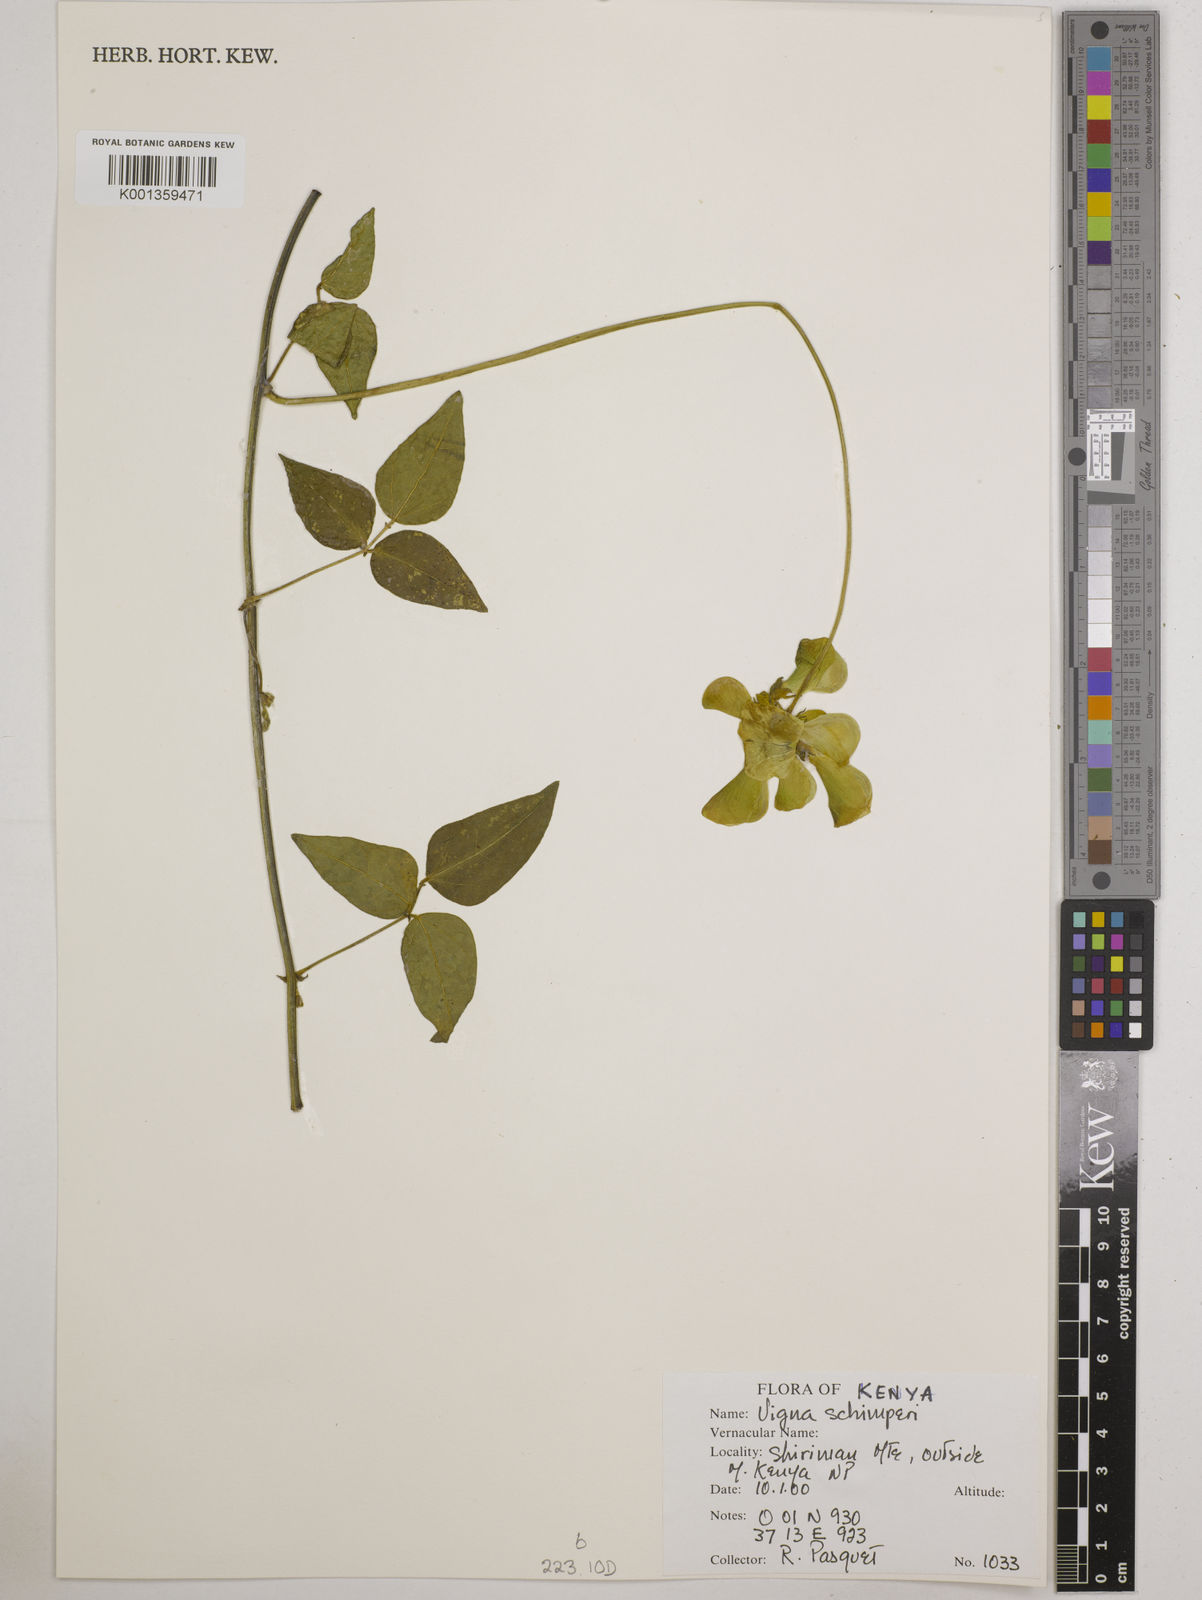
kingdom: Plantae
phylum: Tracheophyta
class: Magnoliopsida
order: Fabales
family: Fabaceae
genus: Vigna
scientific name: Vigna schimperi
